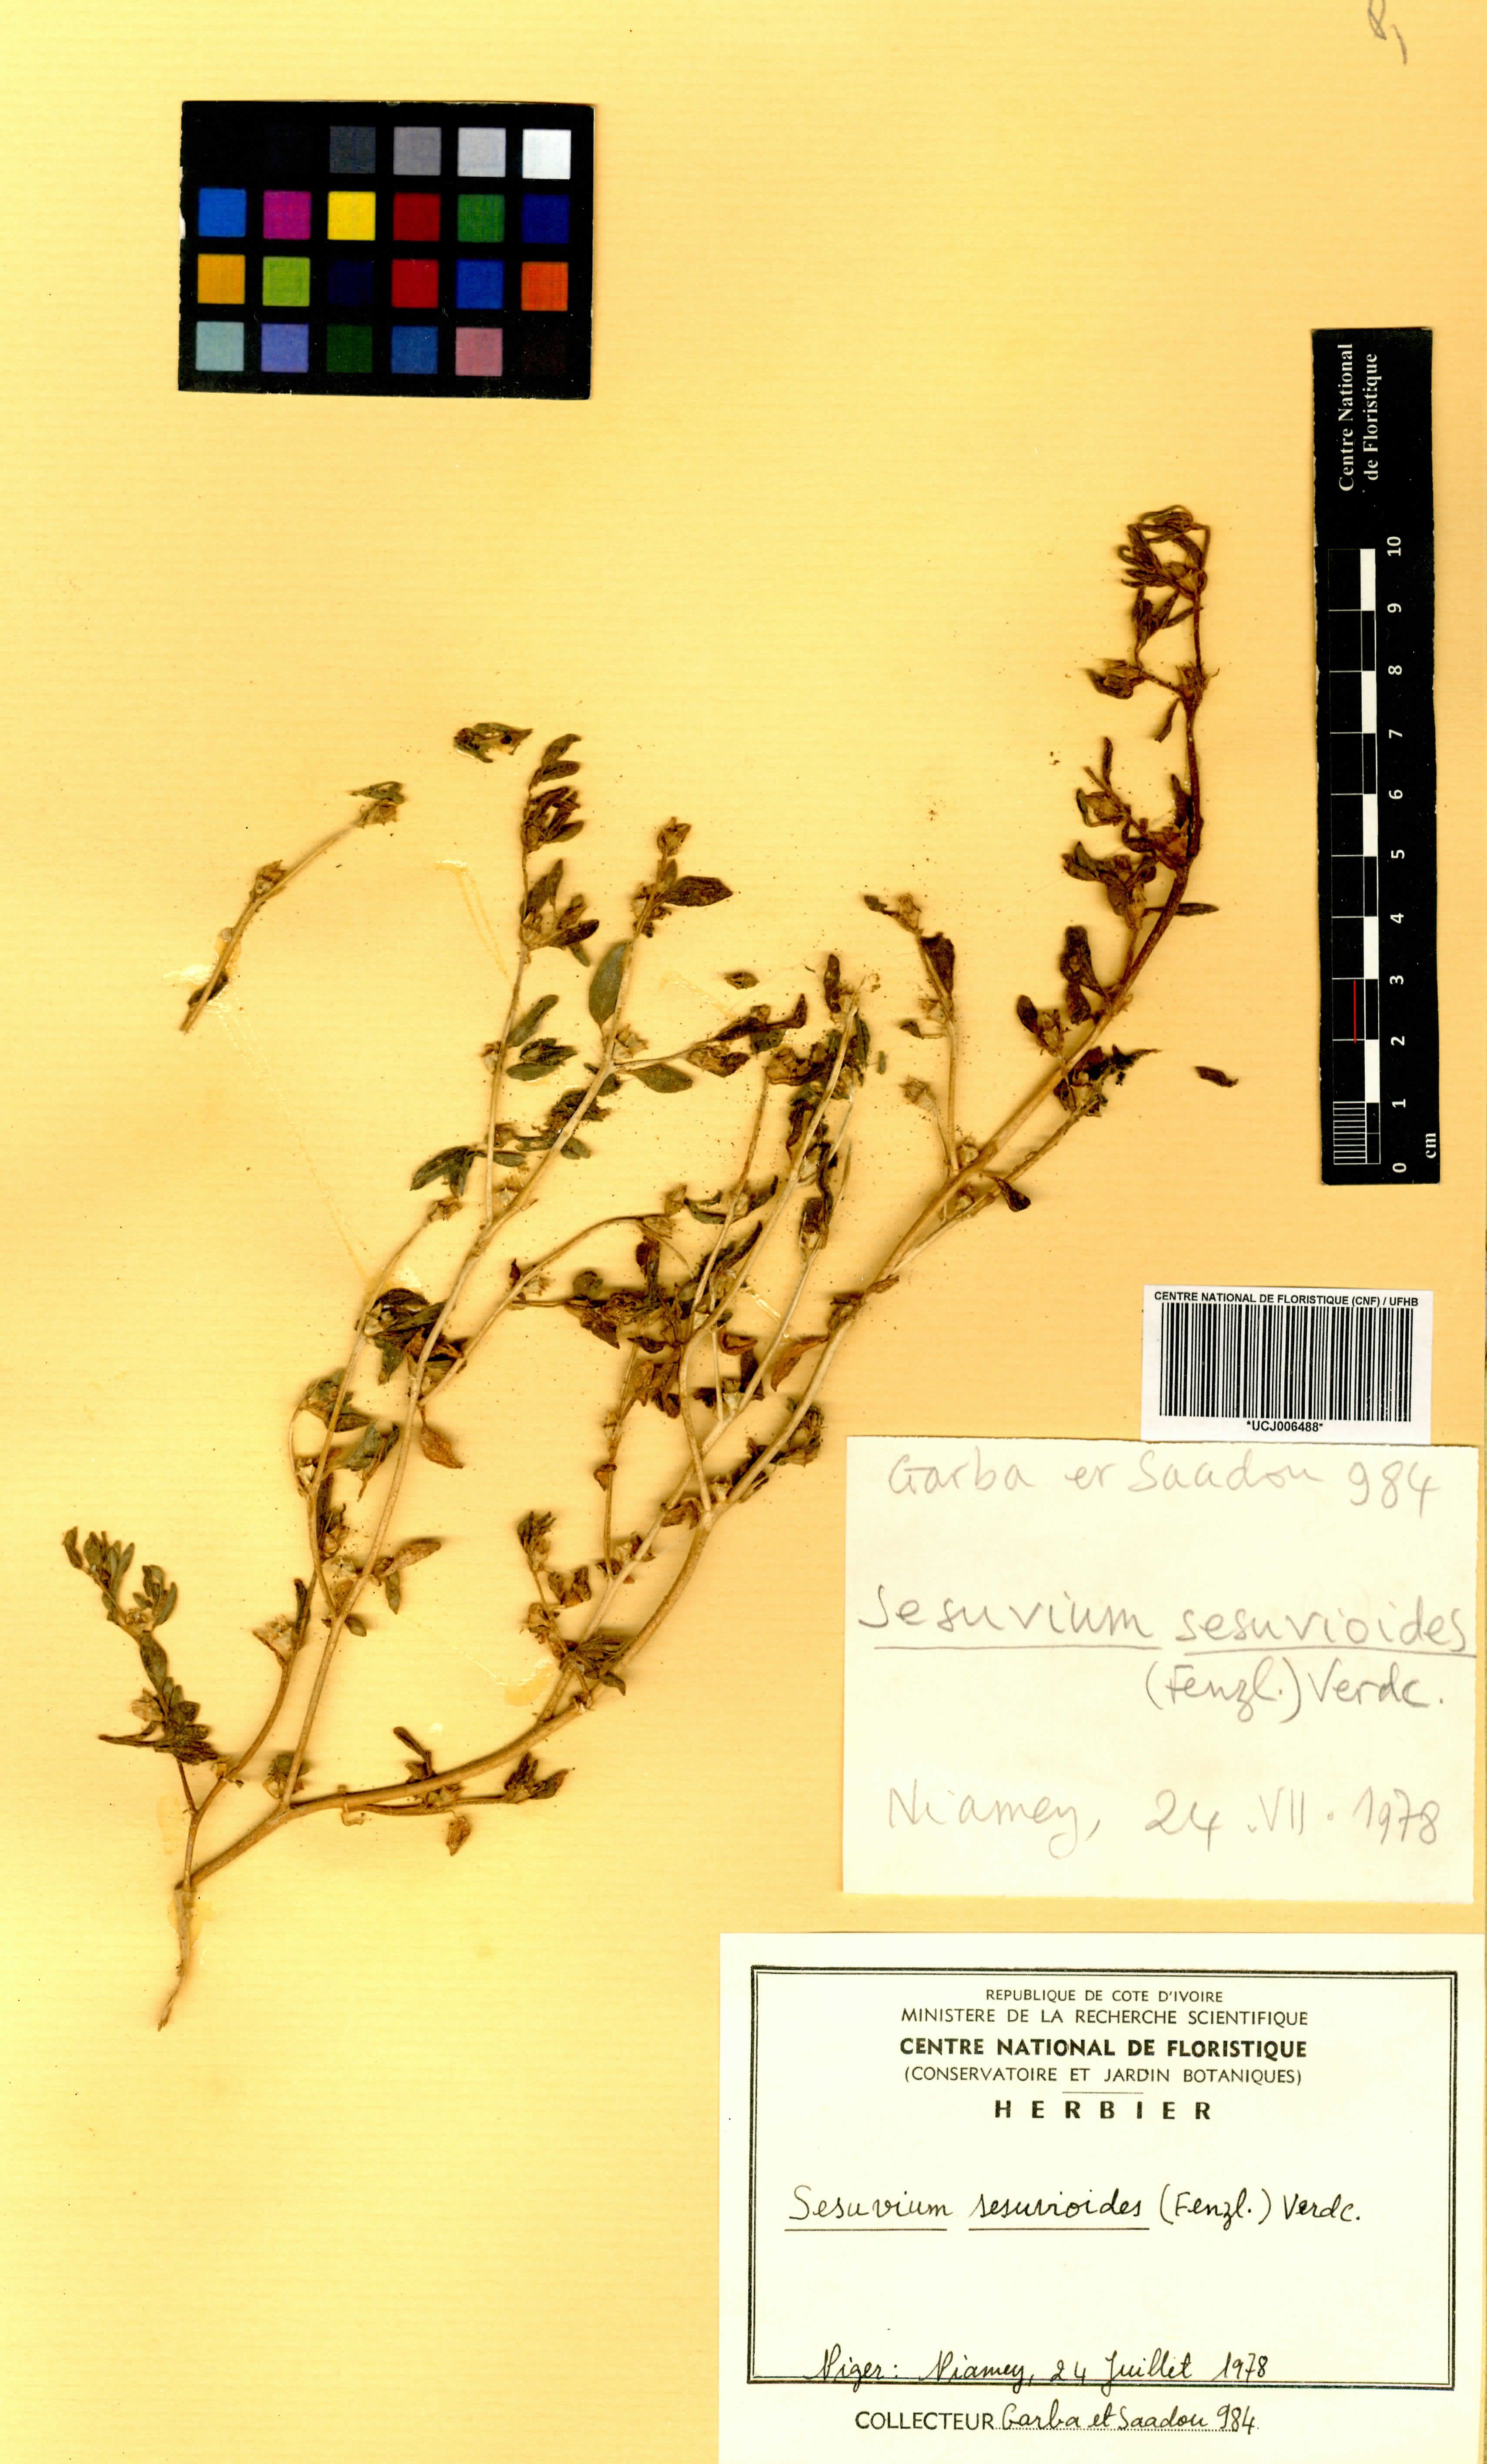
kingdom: Plantae
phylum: Tracheophyta
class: Magnoliopsida
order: Caryophyllales
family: Aizoaceae
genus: Sesuvium
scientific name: Sesuvium sesuvioides
